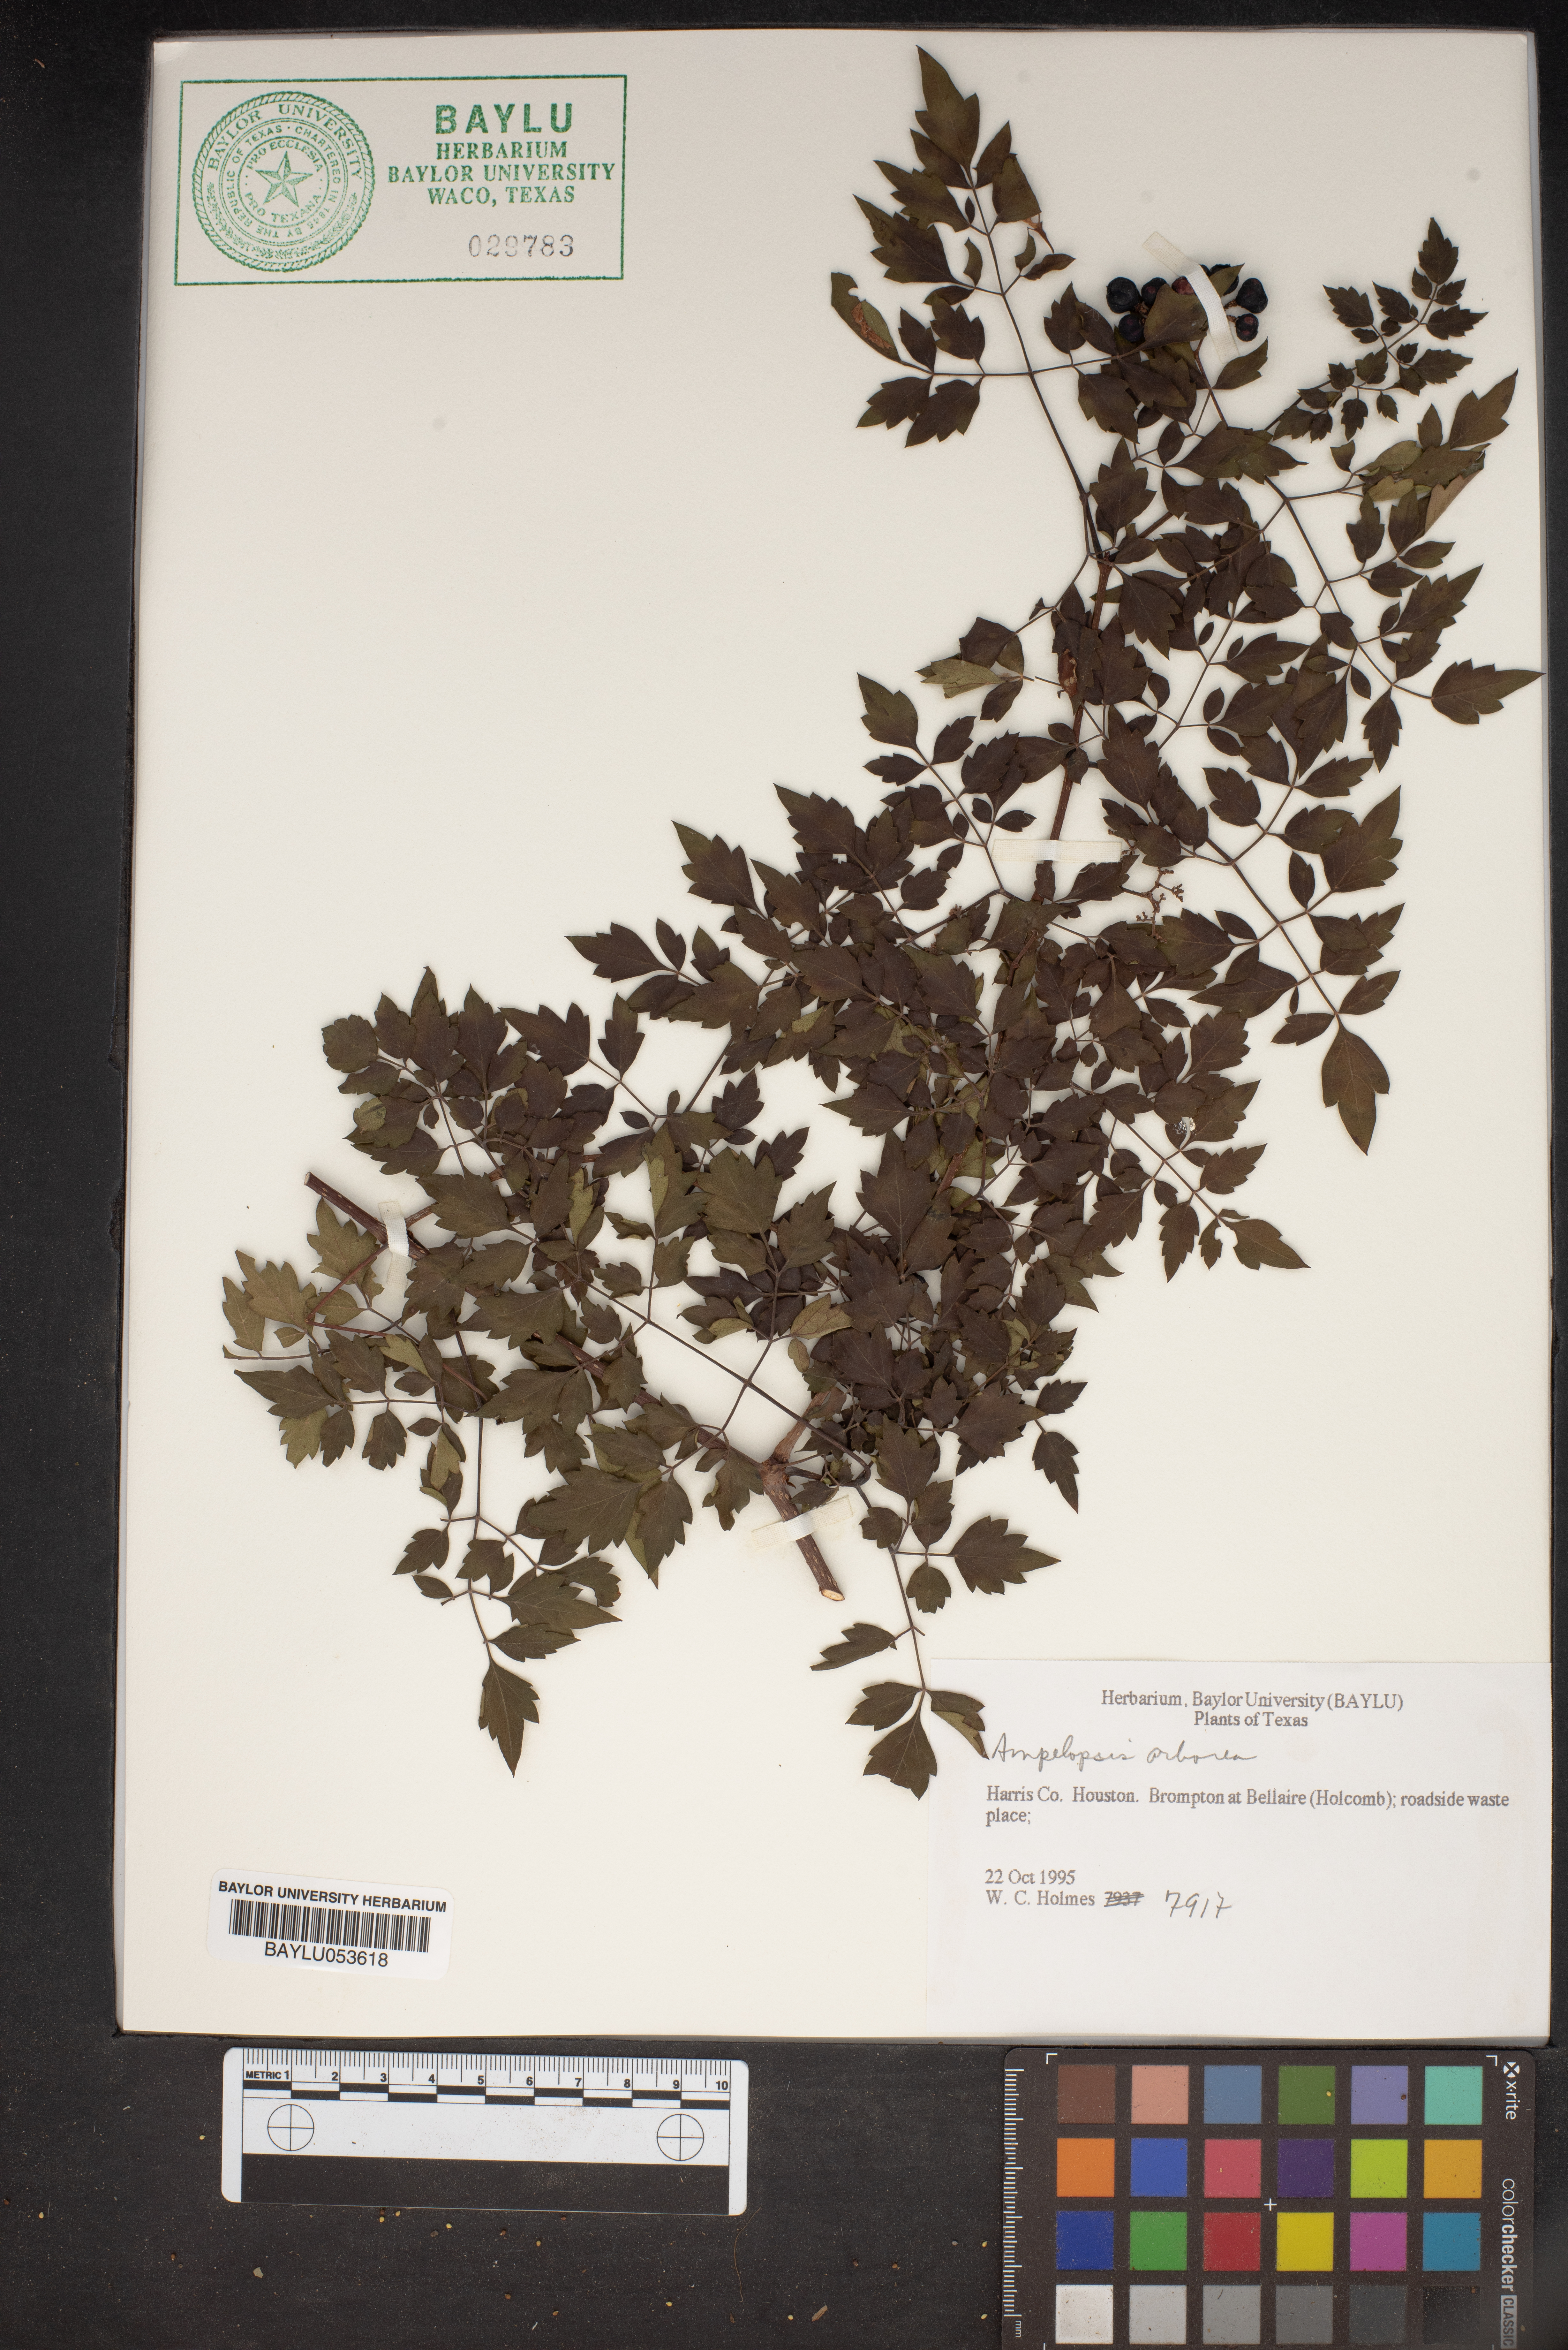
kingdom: Plantae
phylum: Tracheophyta
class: Magnoliopsida
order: Vitales
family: Vitaceae
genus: Nekemias
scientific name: Nekemias arborea
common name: Peppervine
